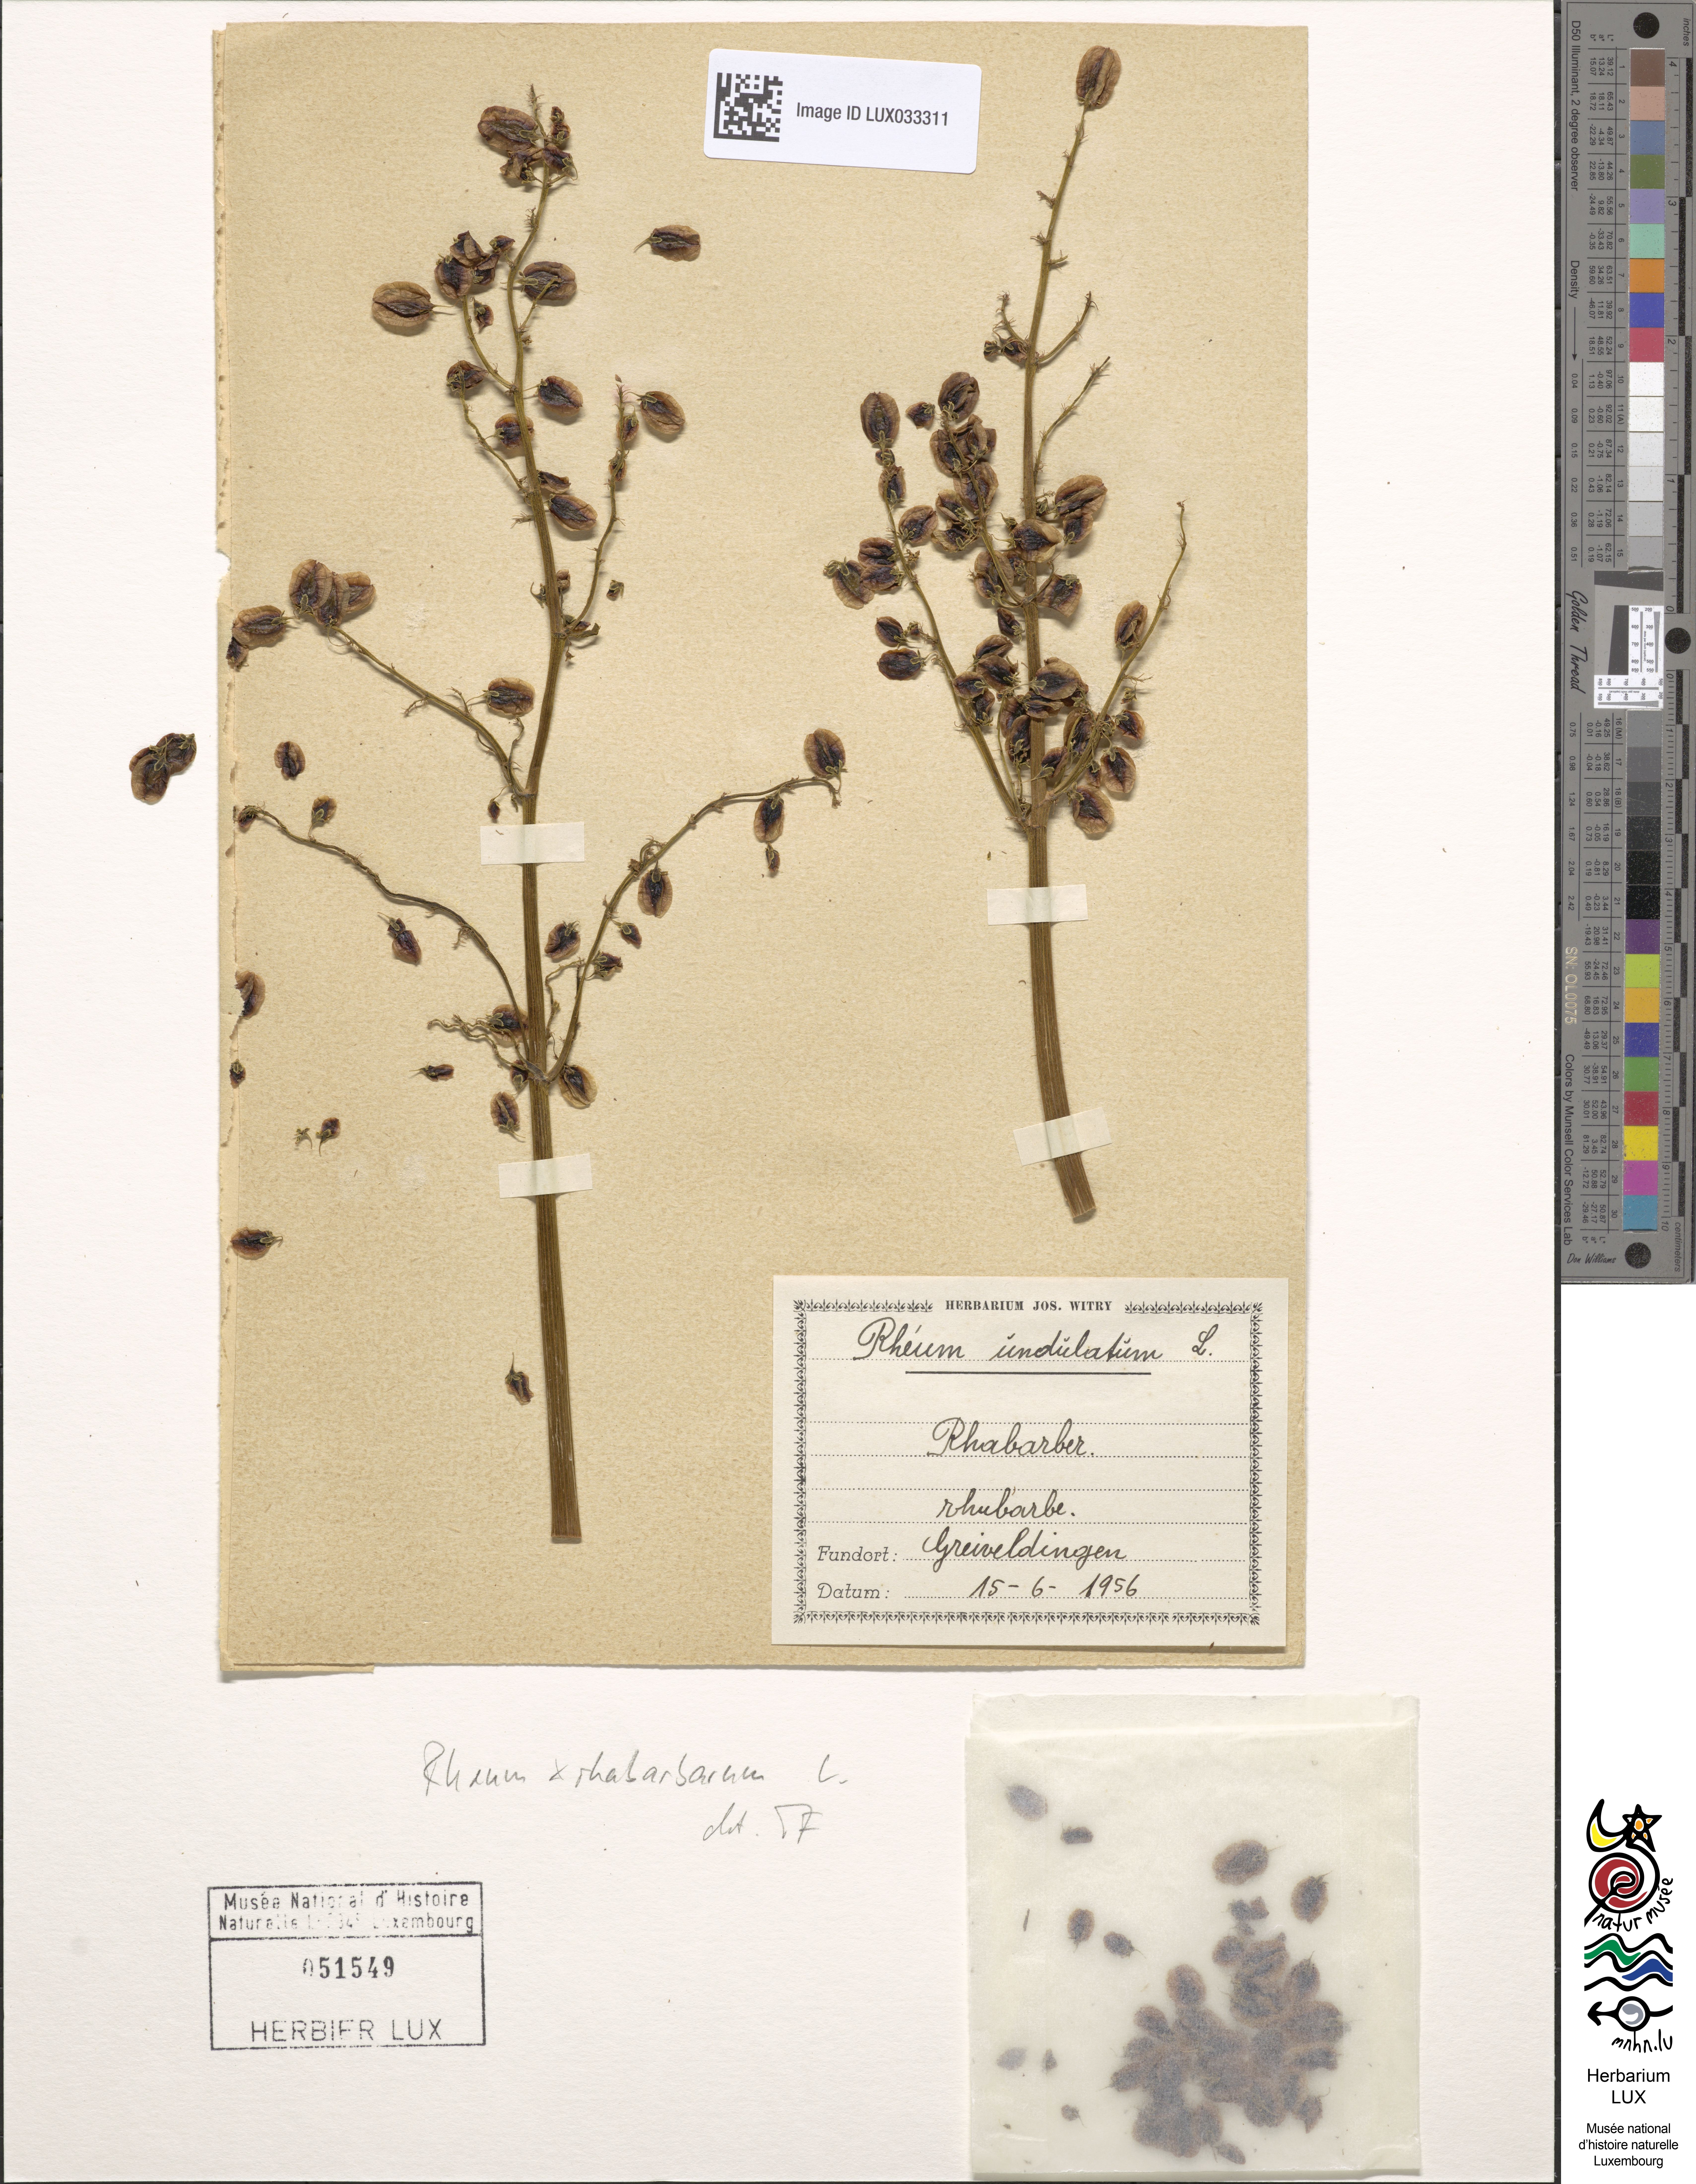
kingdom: Plantae
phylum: Tracheophyta
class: Magnoliopsida
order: Caryophyllales
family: Polygonaceae
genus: Rheum
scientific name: Rheum rhabarbarum
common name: Garden rhubarb
